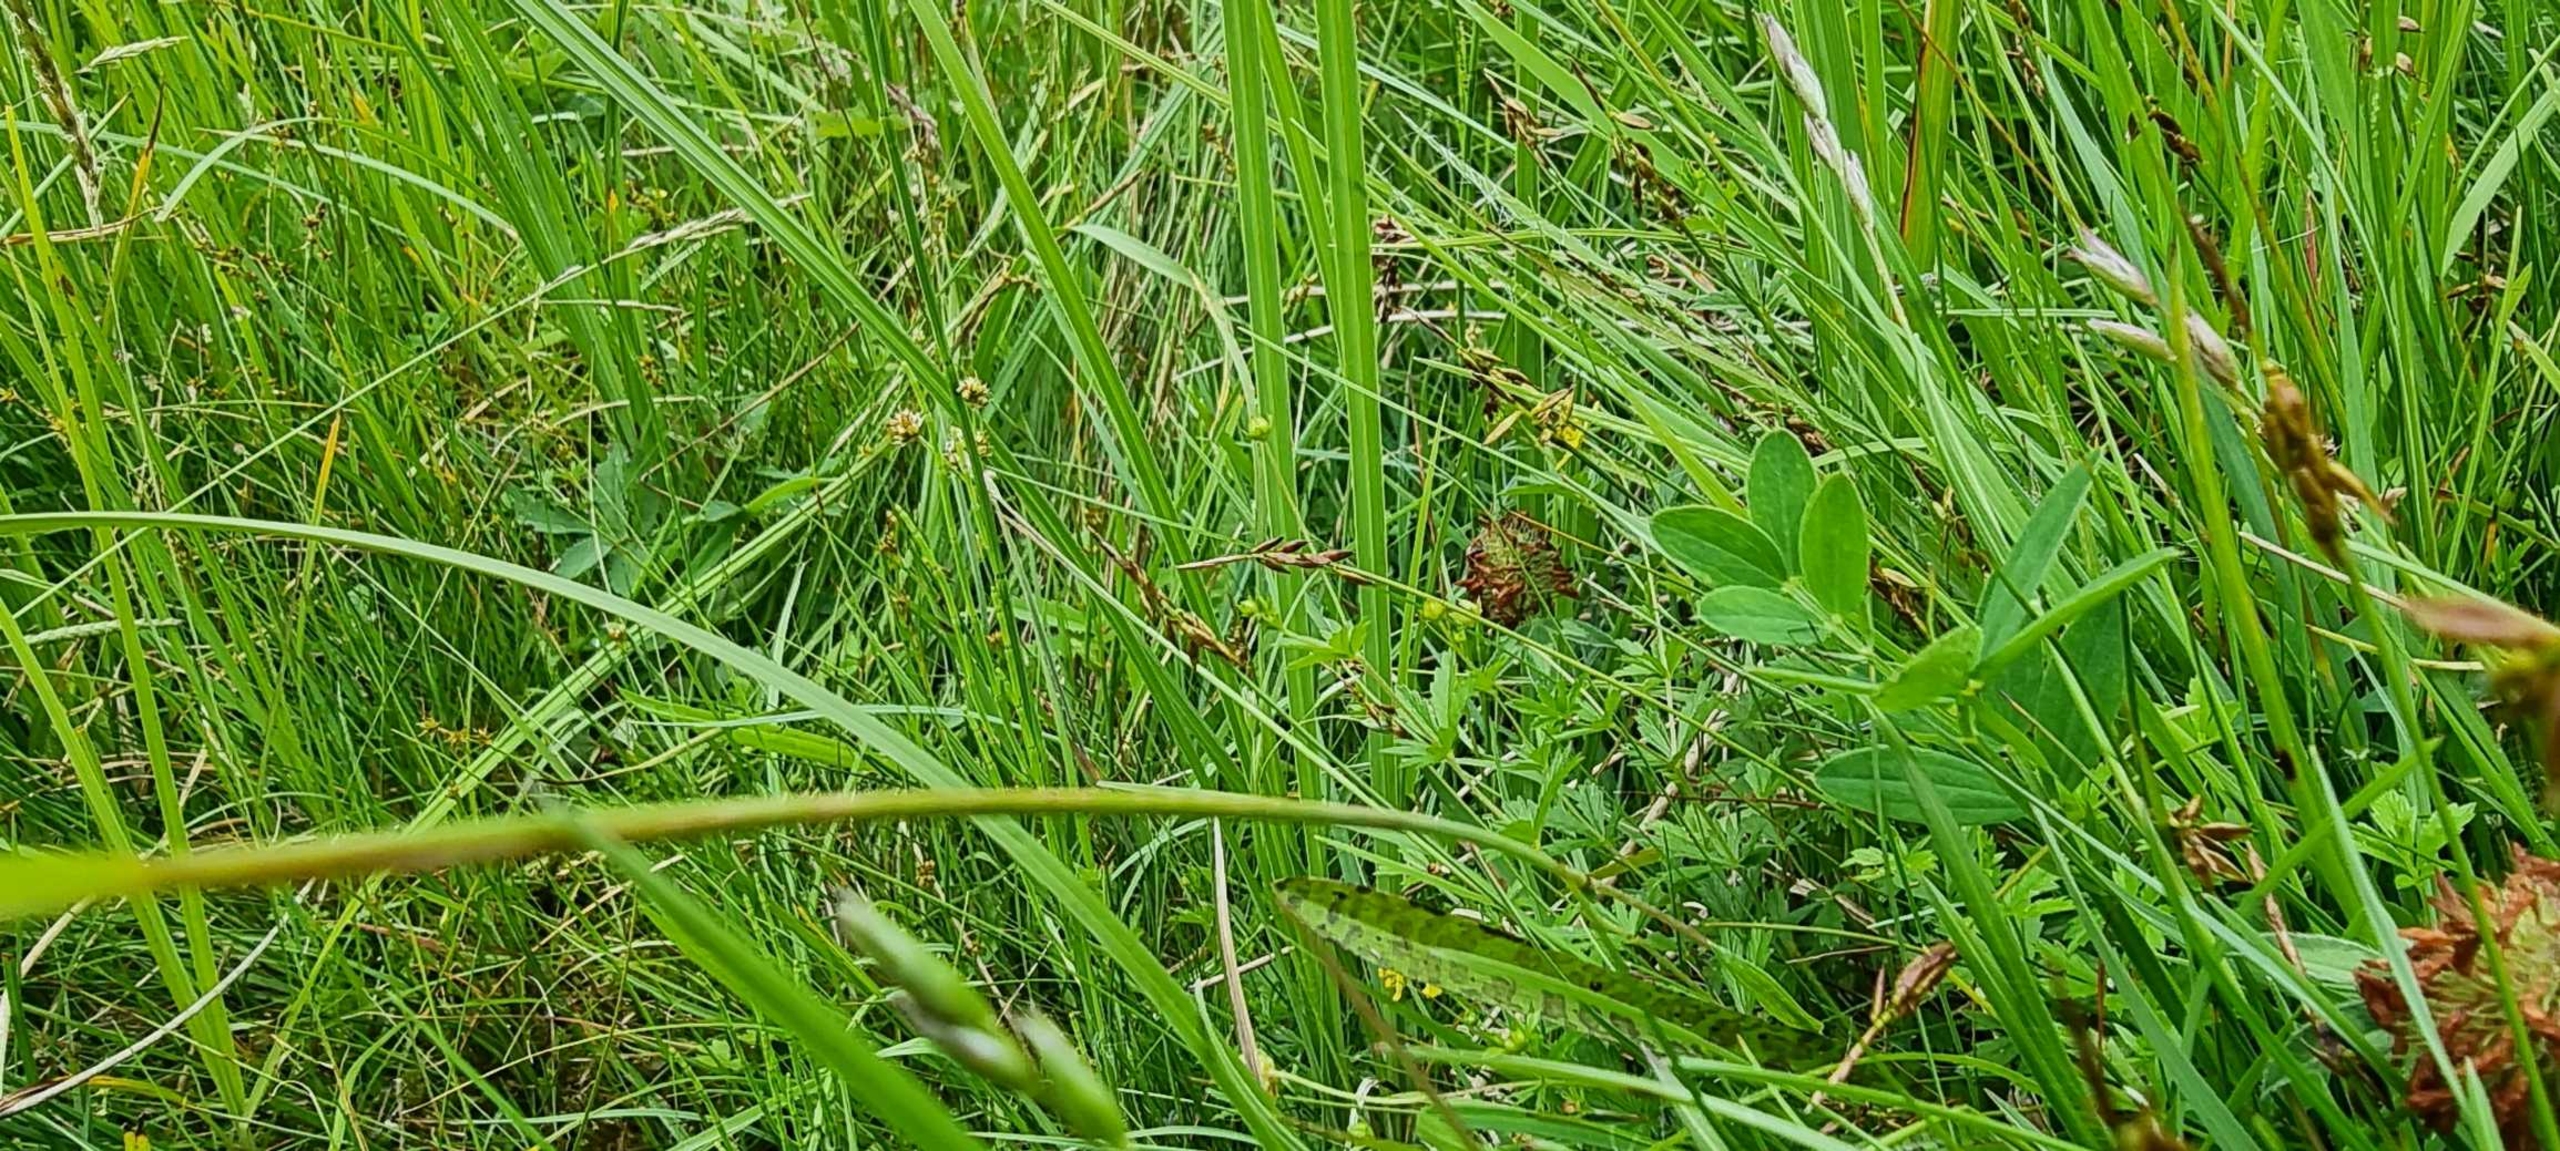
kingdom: Plantae
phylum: Tracheophyta
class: Liliopsida
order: Poales
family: Cyperaceae
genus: Carex
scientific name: Carex pulicaris
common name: Loppe-star
